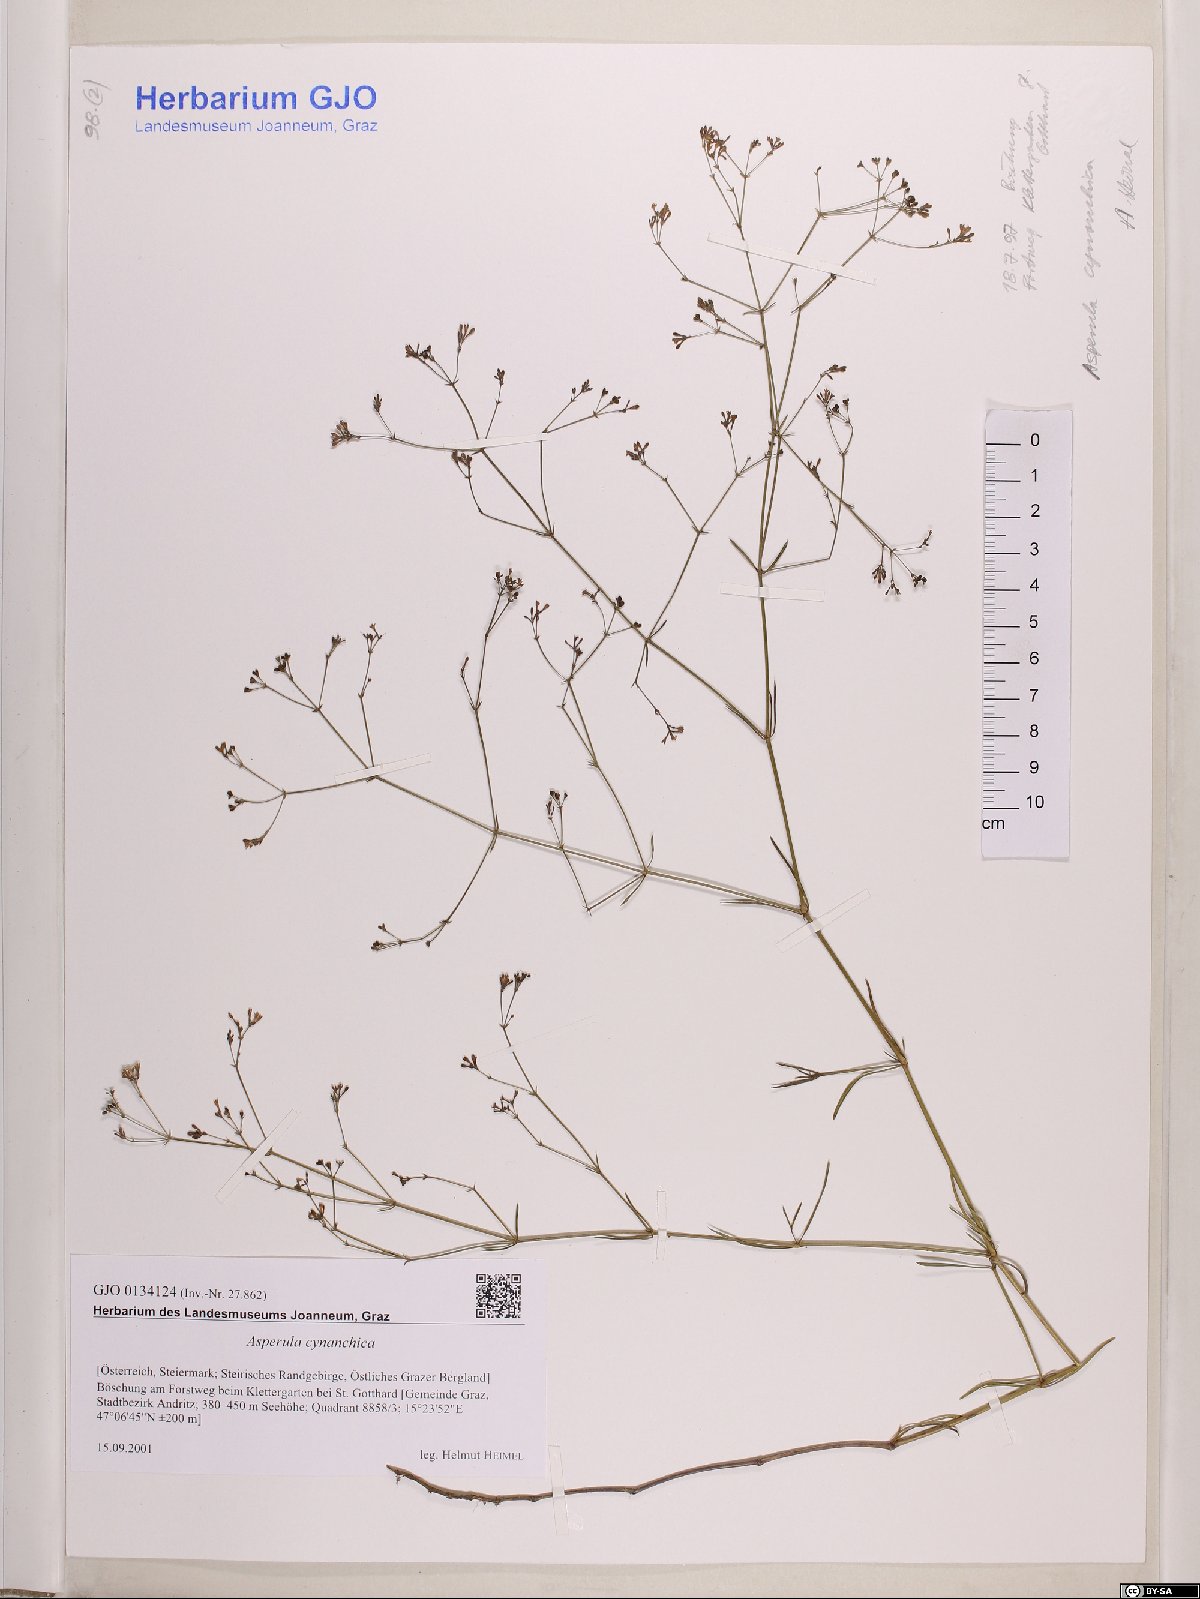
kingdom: Plantae
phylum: Tracheophyta
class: Magnoliopsida
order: Gentianales
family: Rubiaceae
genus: Cynanchica
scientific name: Cynanchica pyrenaica
